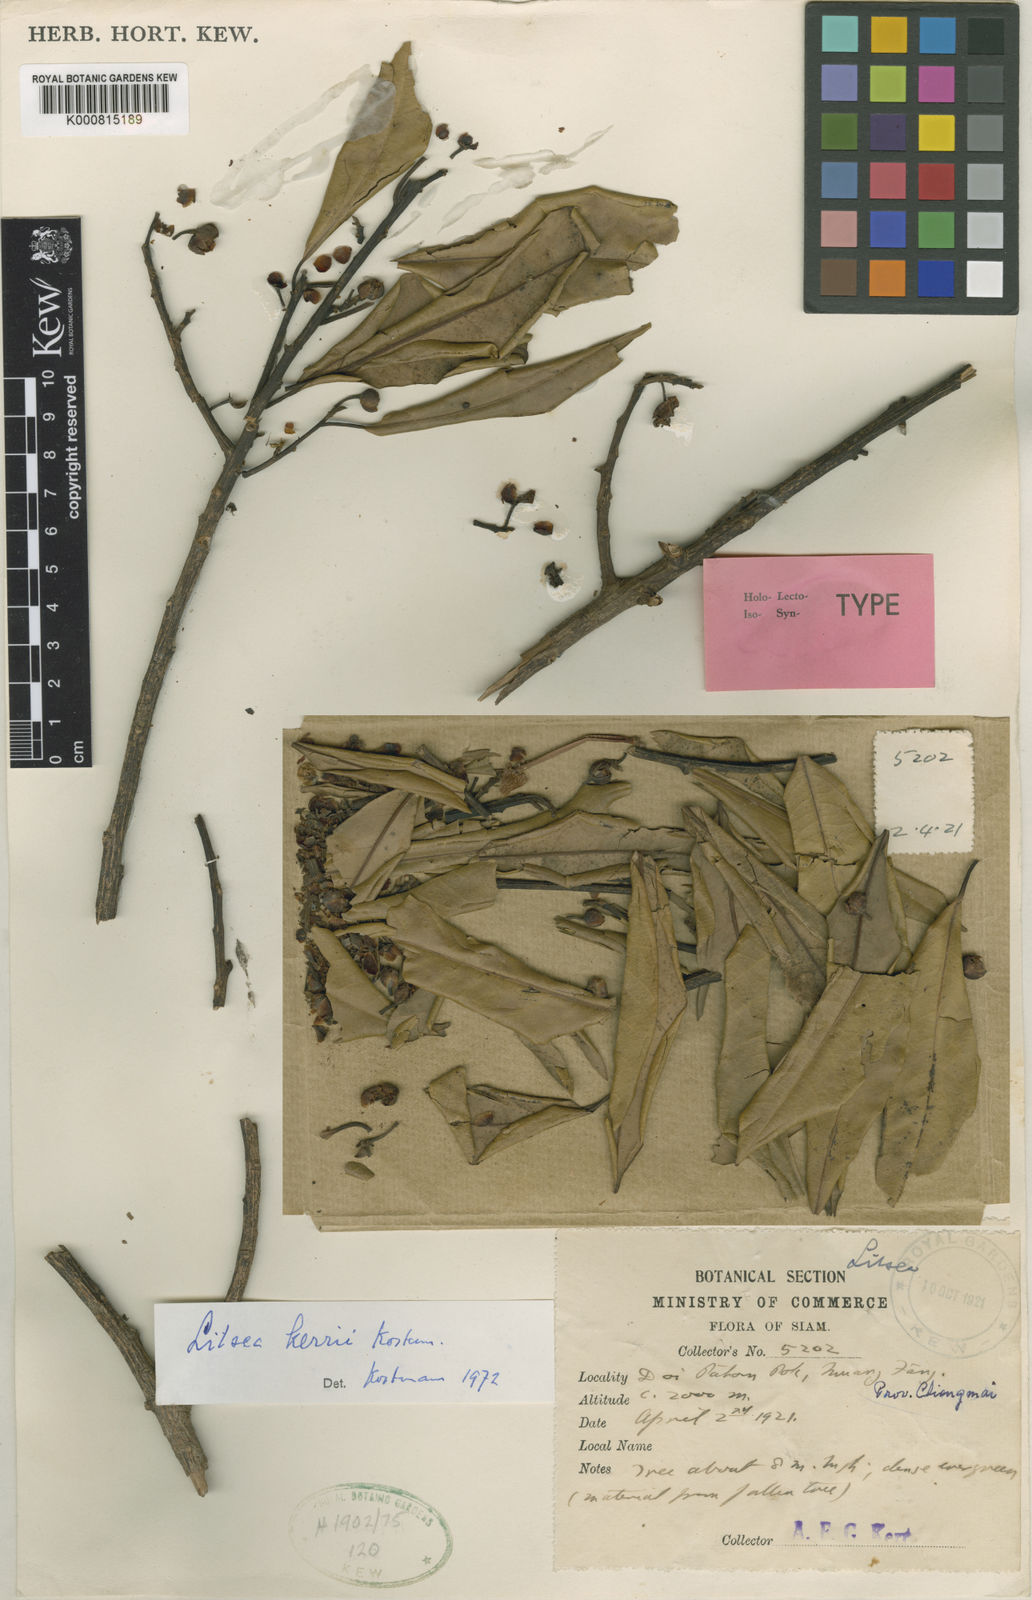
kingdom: Plantae
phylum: Tracheophyta
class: Magnoliopsida
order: Laurales
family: Lauraceae
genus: Litsea
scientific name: Litsea kerrii
